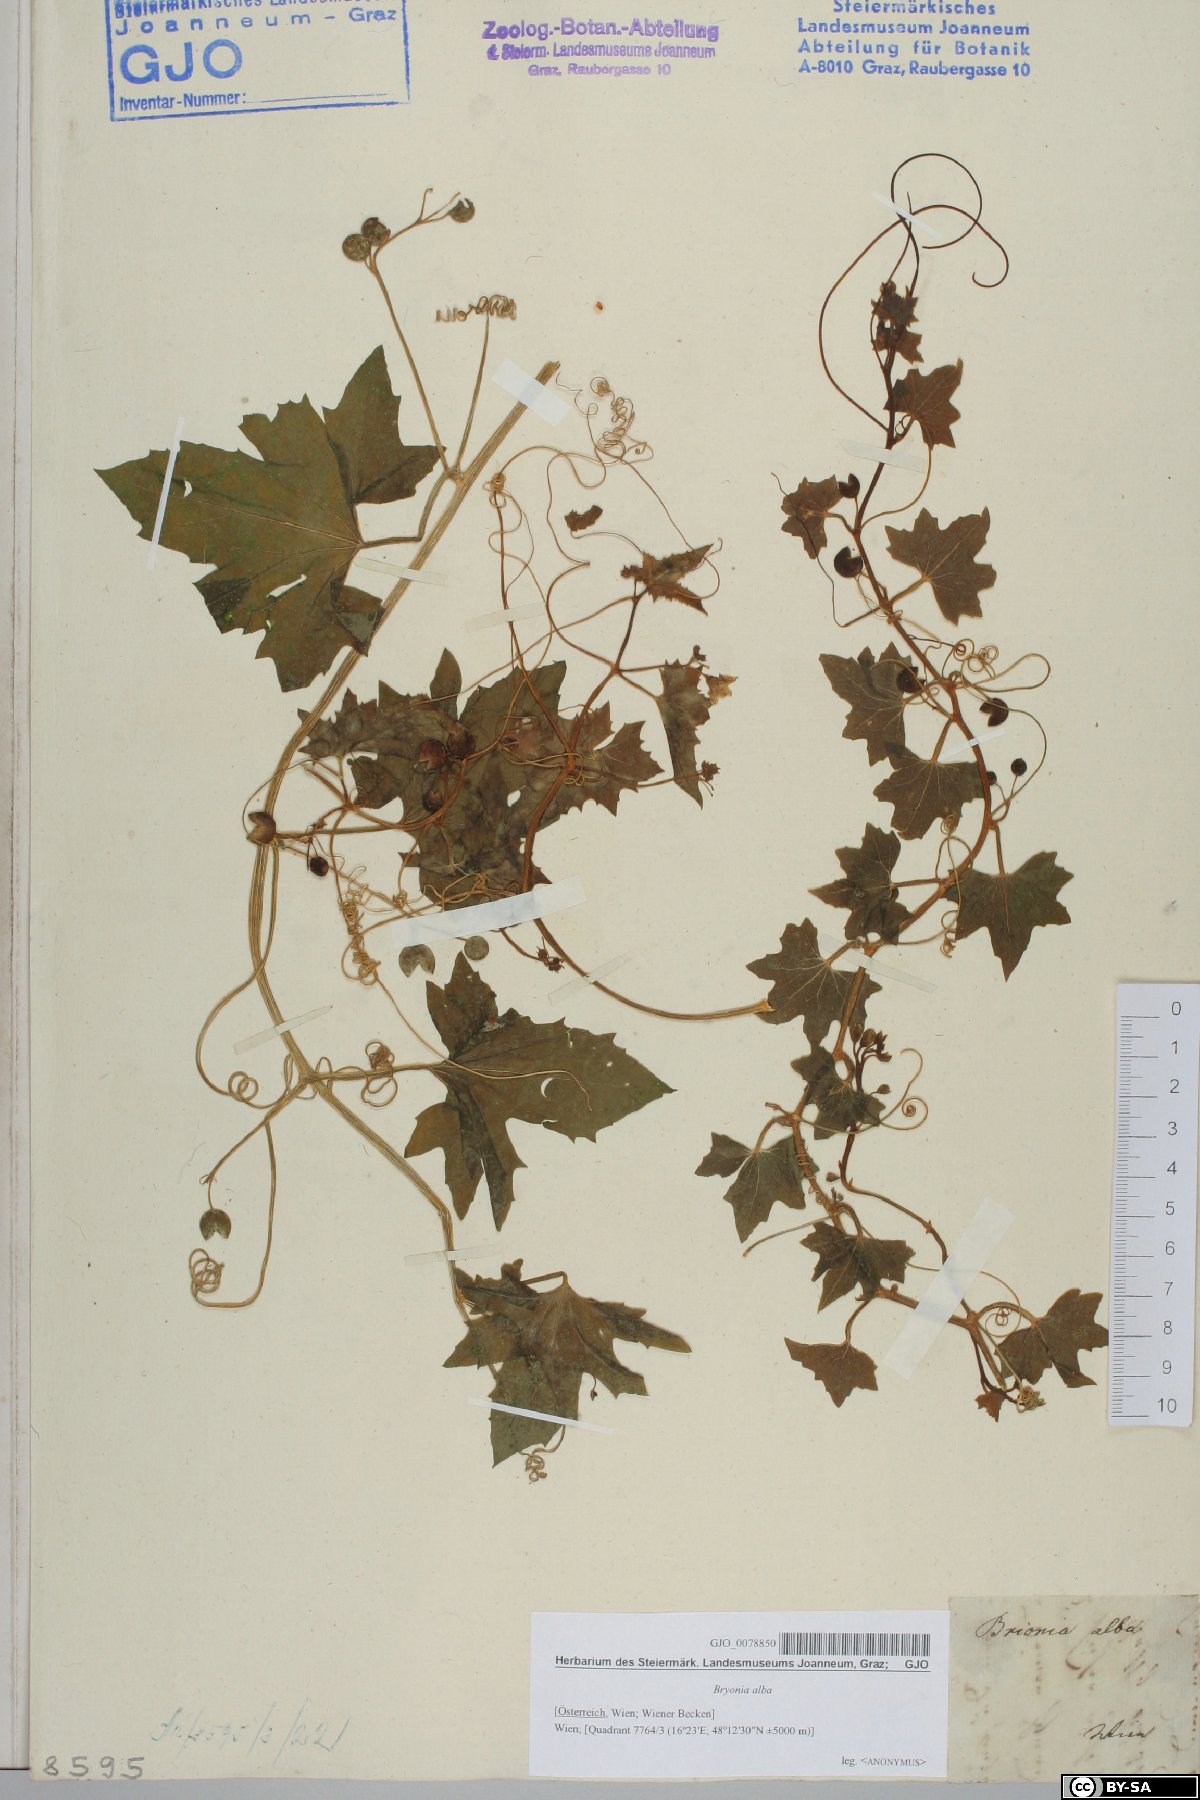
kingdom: Plantae
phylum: Tracheophyta
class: Magnoliopsida
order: Cucurbitales
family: Cucurbitaceae
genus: Bryonia
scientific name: Bryonia alba
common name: White bryony
